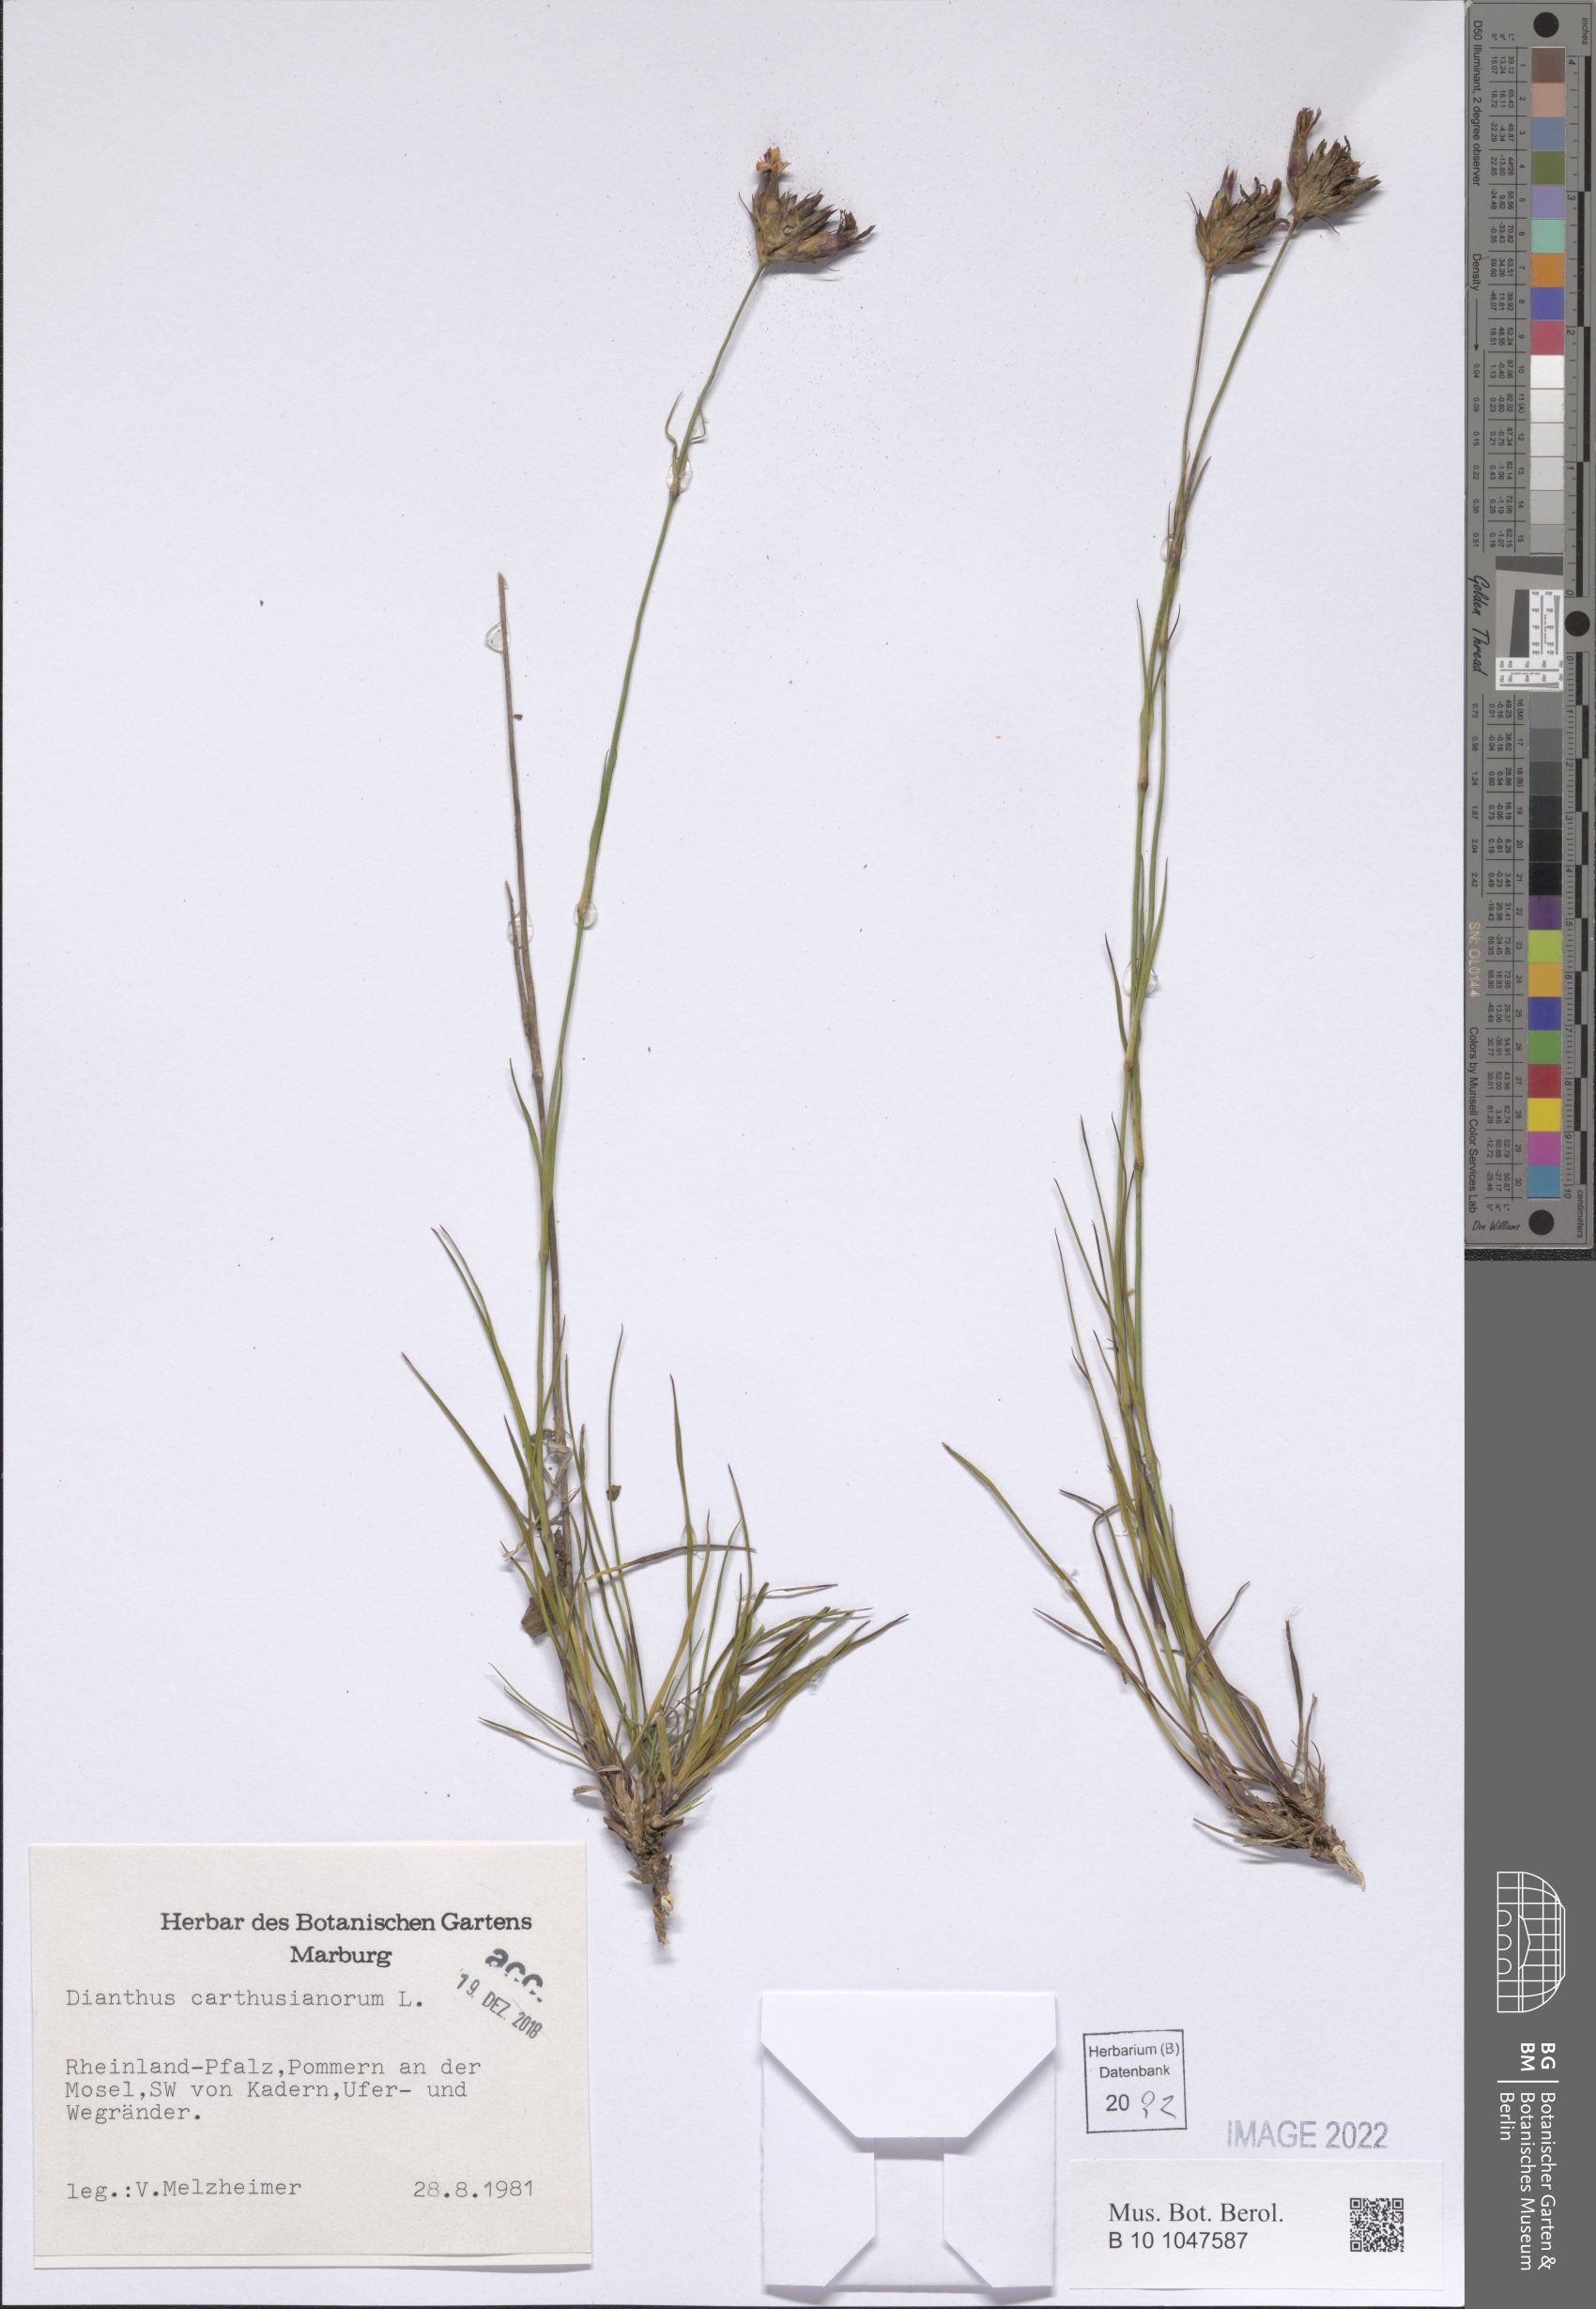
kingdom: Plantae
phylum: Tracheophyta
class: Magnoliopsida
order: Caryophyllales
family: Caryophyllaceae
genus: Dianthus
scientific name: Dianthus carthusianorum
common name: Carthusian pink
